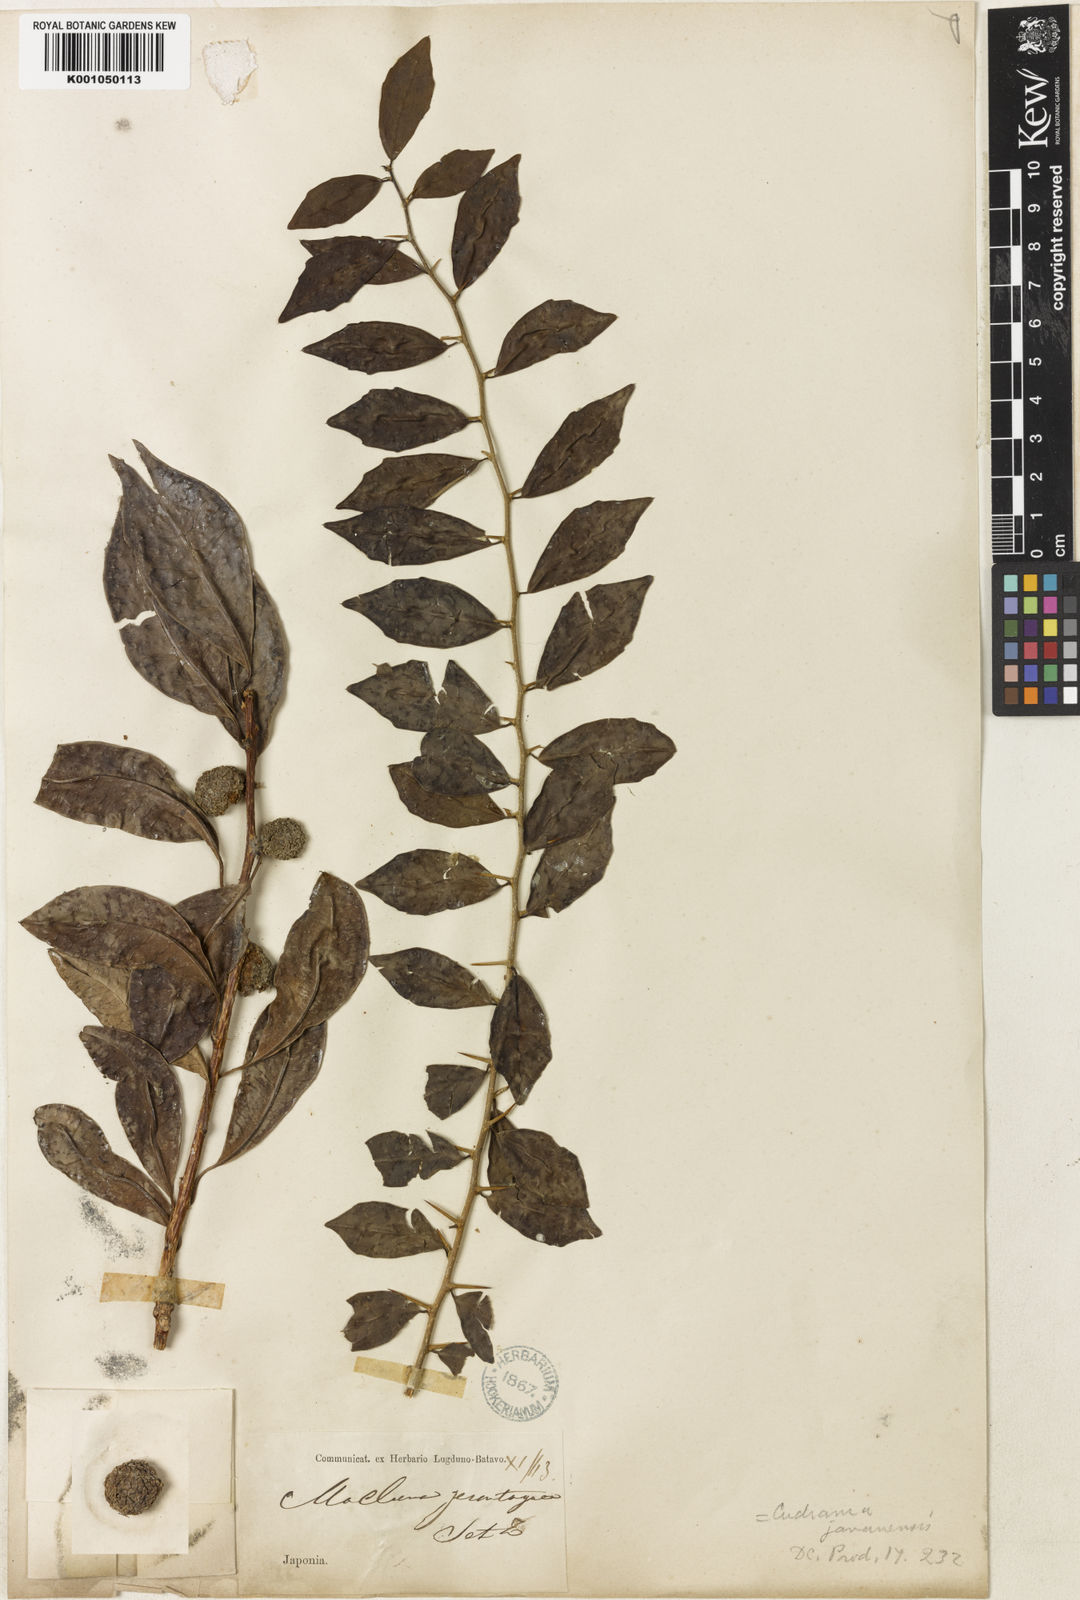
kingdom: Plantae
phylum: Tracheophyta
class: Magnoliopsida
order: Rosales
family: Moraceae
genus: Maclura
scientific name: Maclura cochinchinensis
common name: Cockspurthorn
